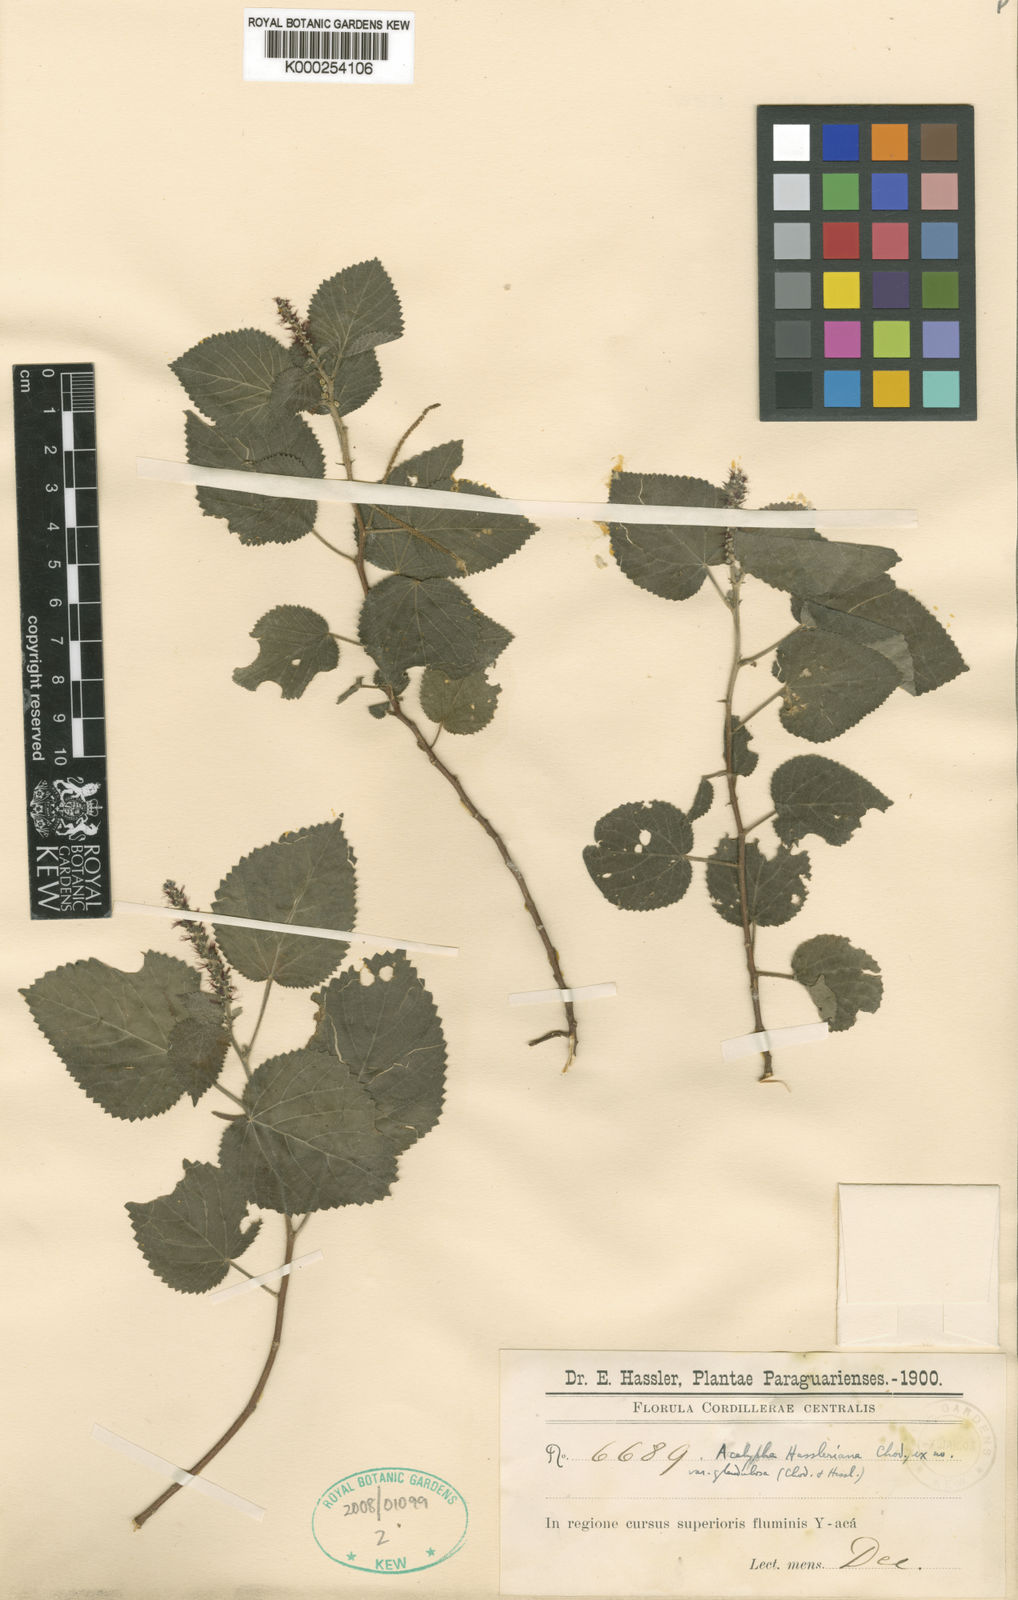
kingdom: Plantae
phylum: Tracheophyta
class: Magnoliopsida
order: Malpighiales
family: Euphorbiaceae
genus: Acalypha
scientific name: Acalypha hassleriana
